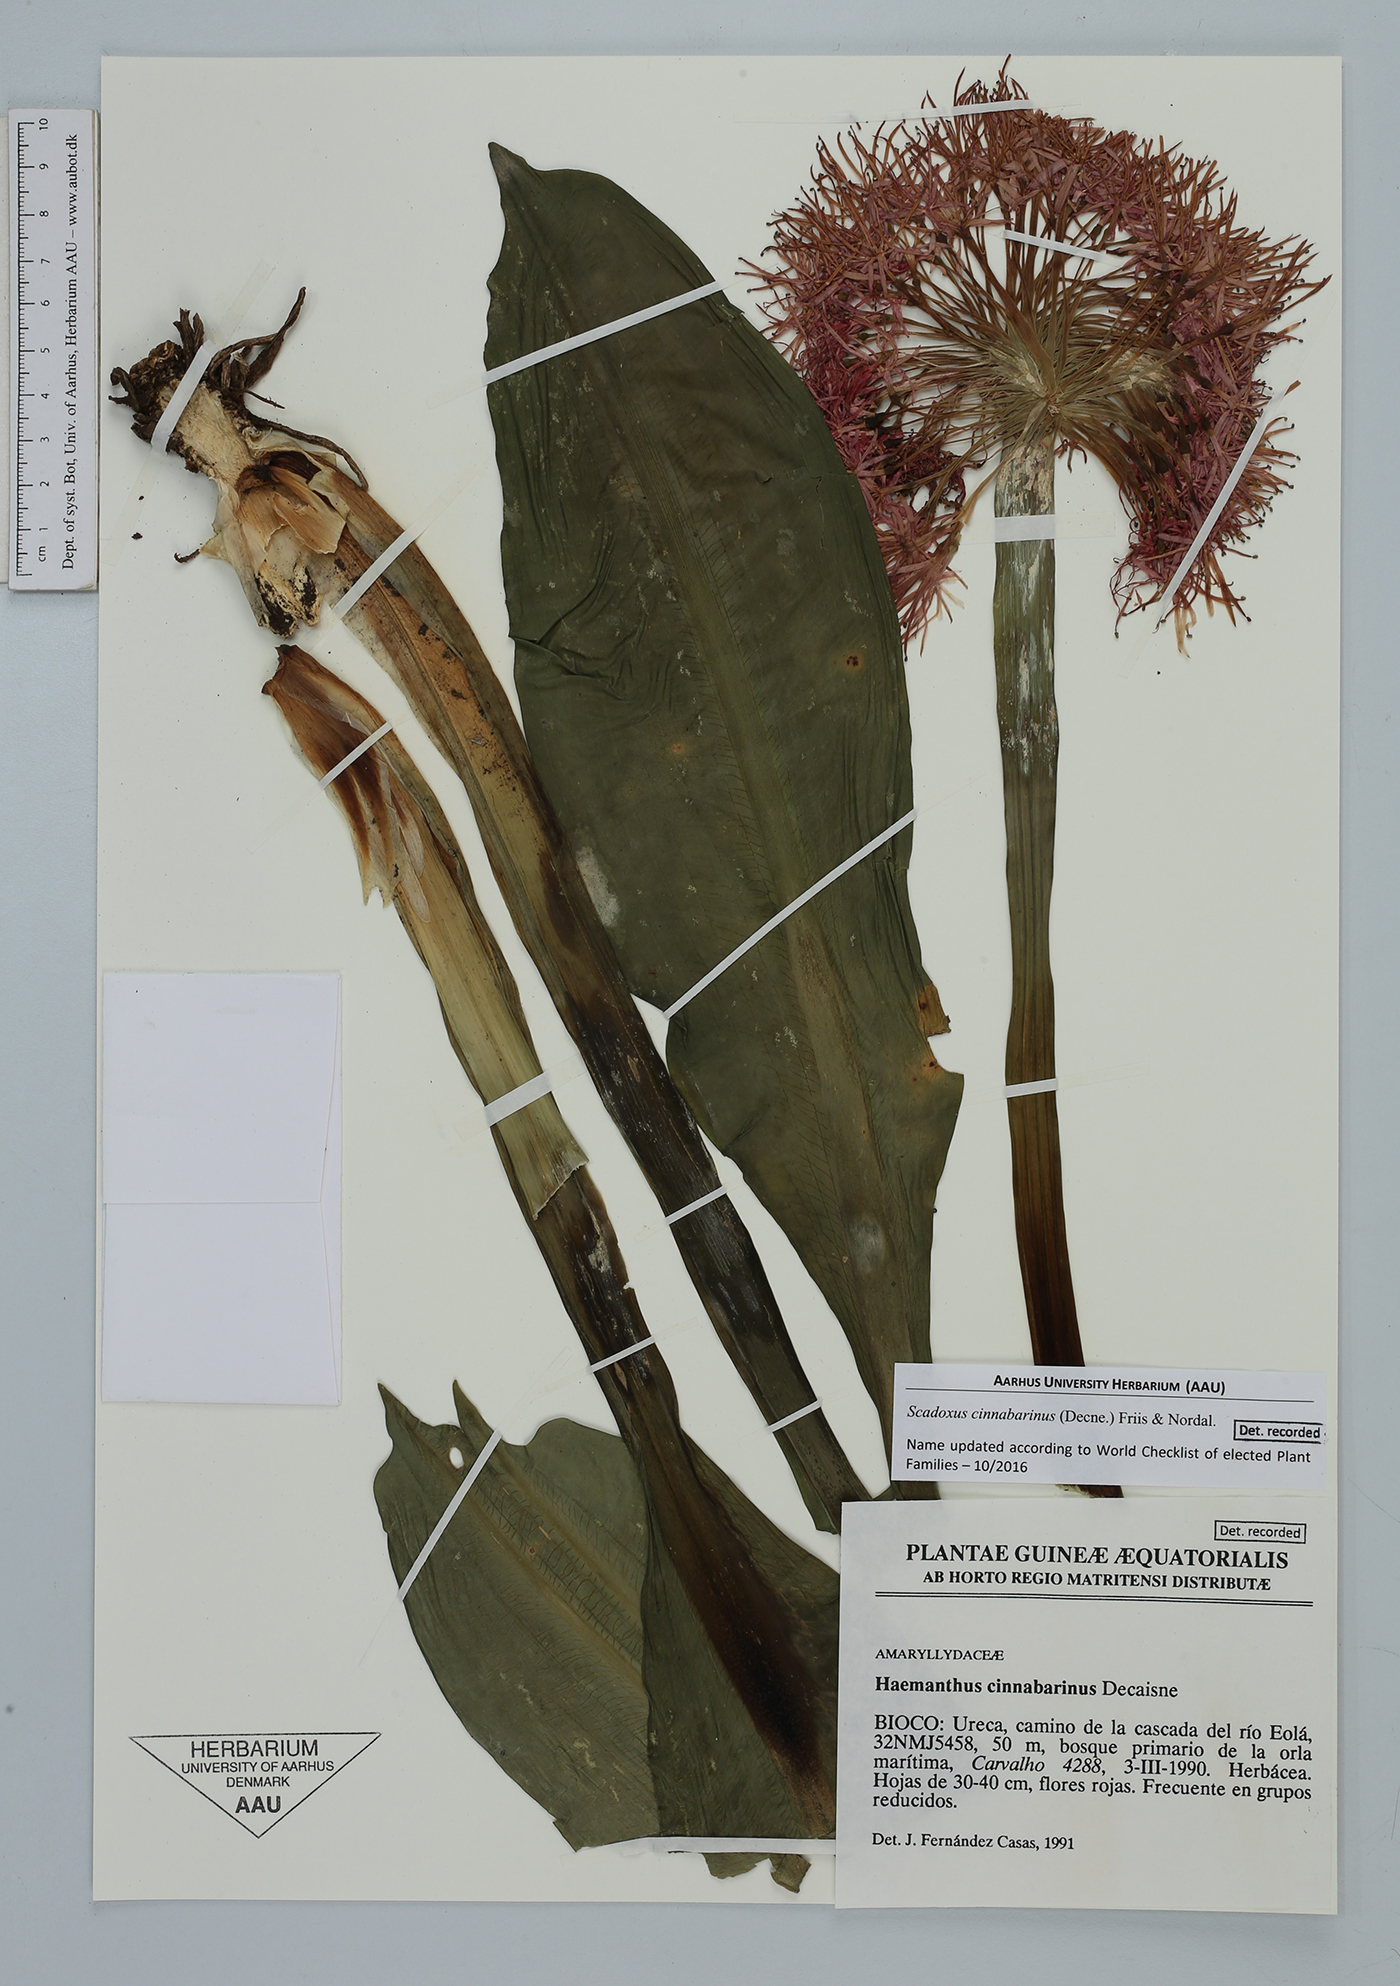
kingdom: Plantae
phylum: Tracheophyta
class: Liliopsida
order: Asparagales
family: Amaryllidaceae
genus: Scadoxus
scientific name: Scadoxus cinnabarinus
